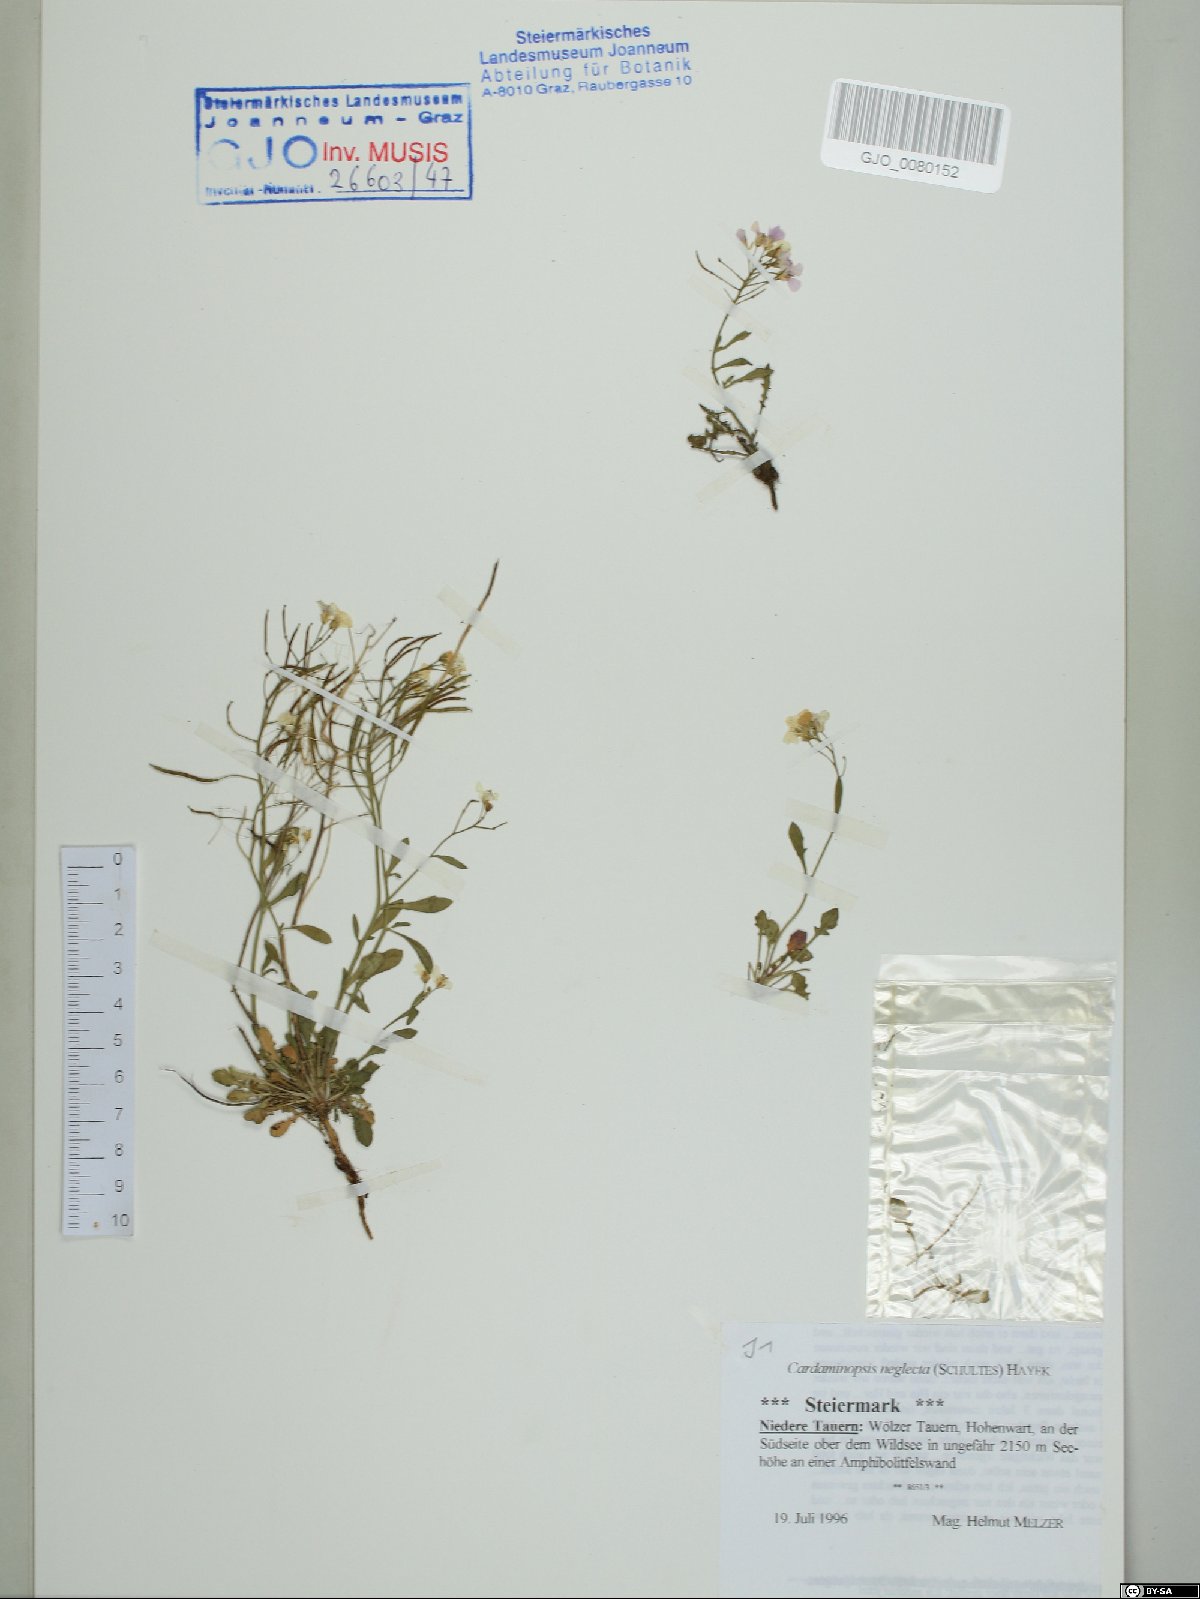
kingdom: Plantae
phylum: Tracheophyta
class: Magnoliopsida
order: Brassicales
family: Brassicaceae
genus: Arabidopsis
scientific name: Arabidopsis neglecta
